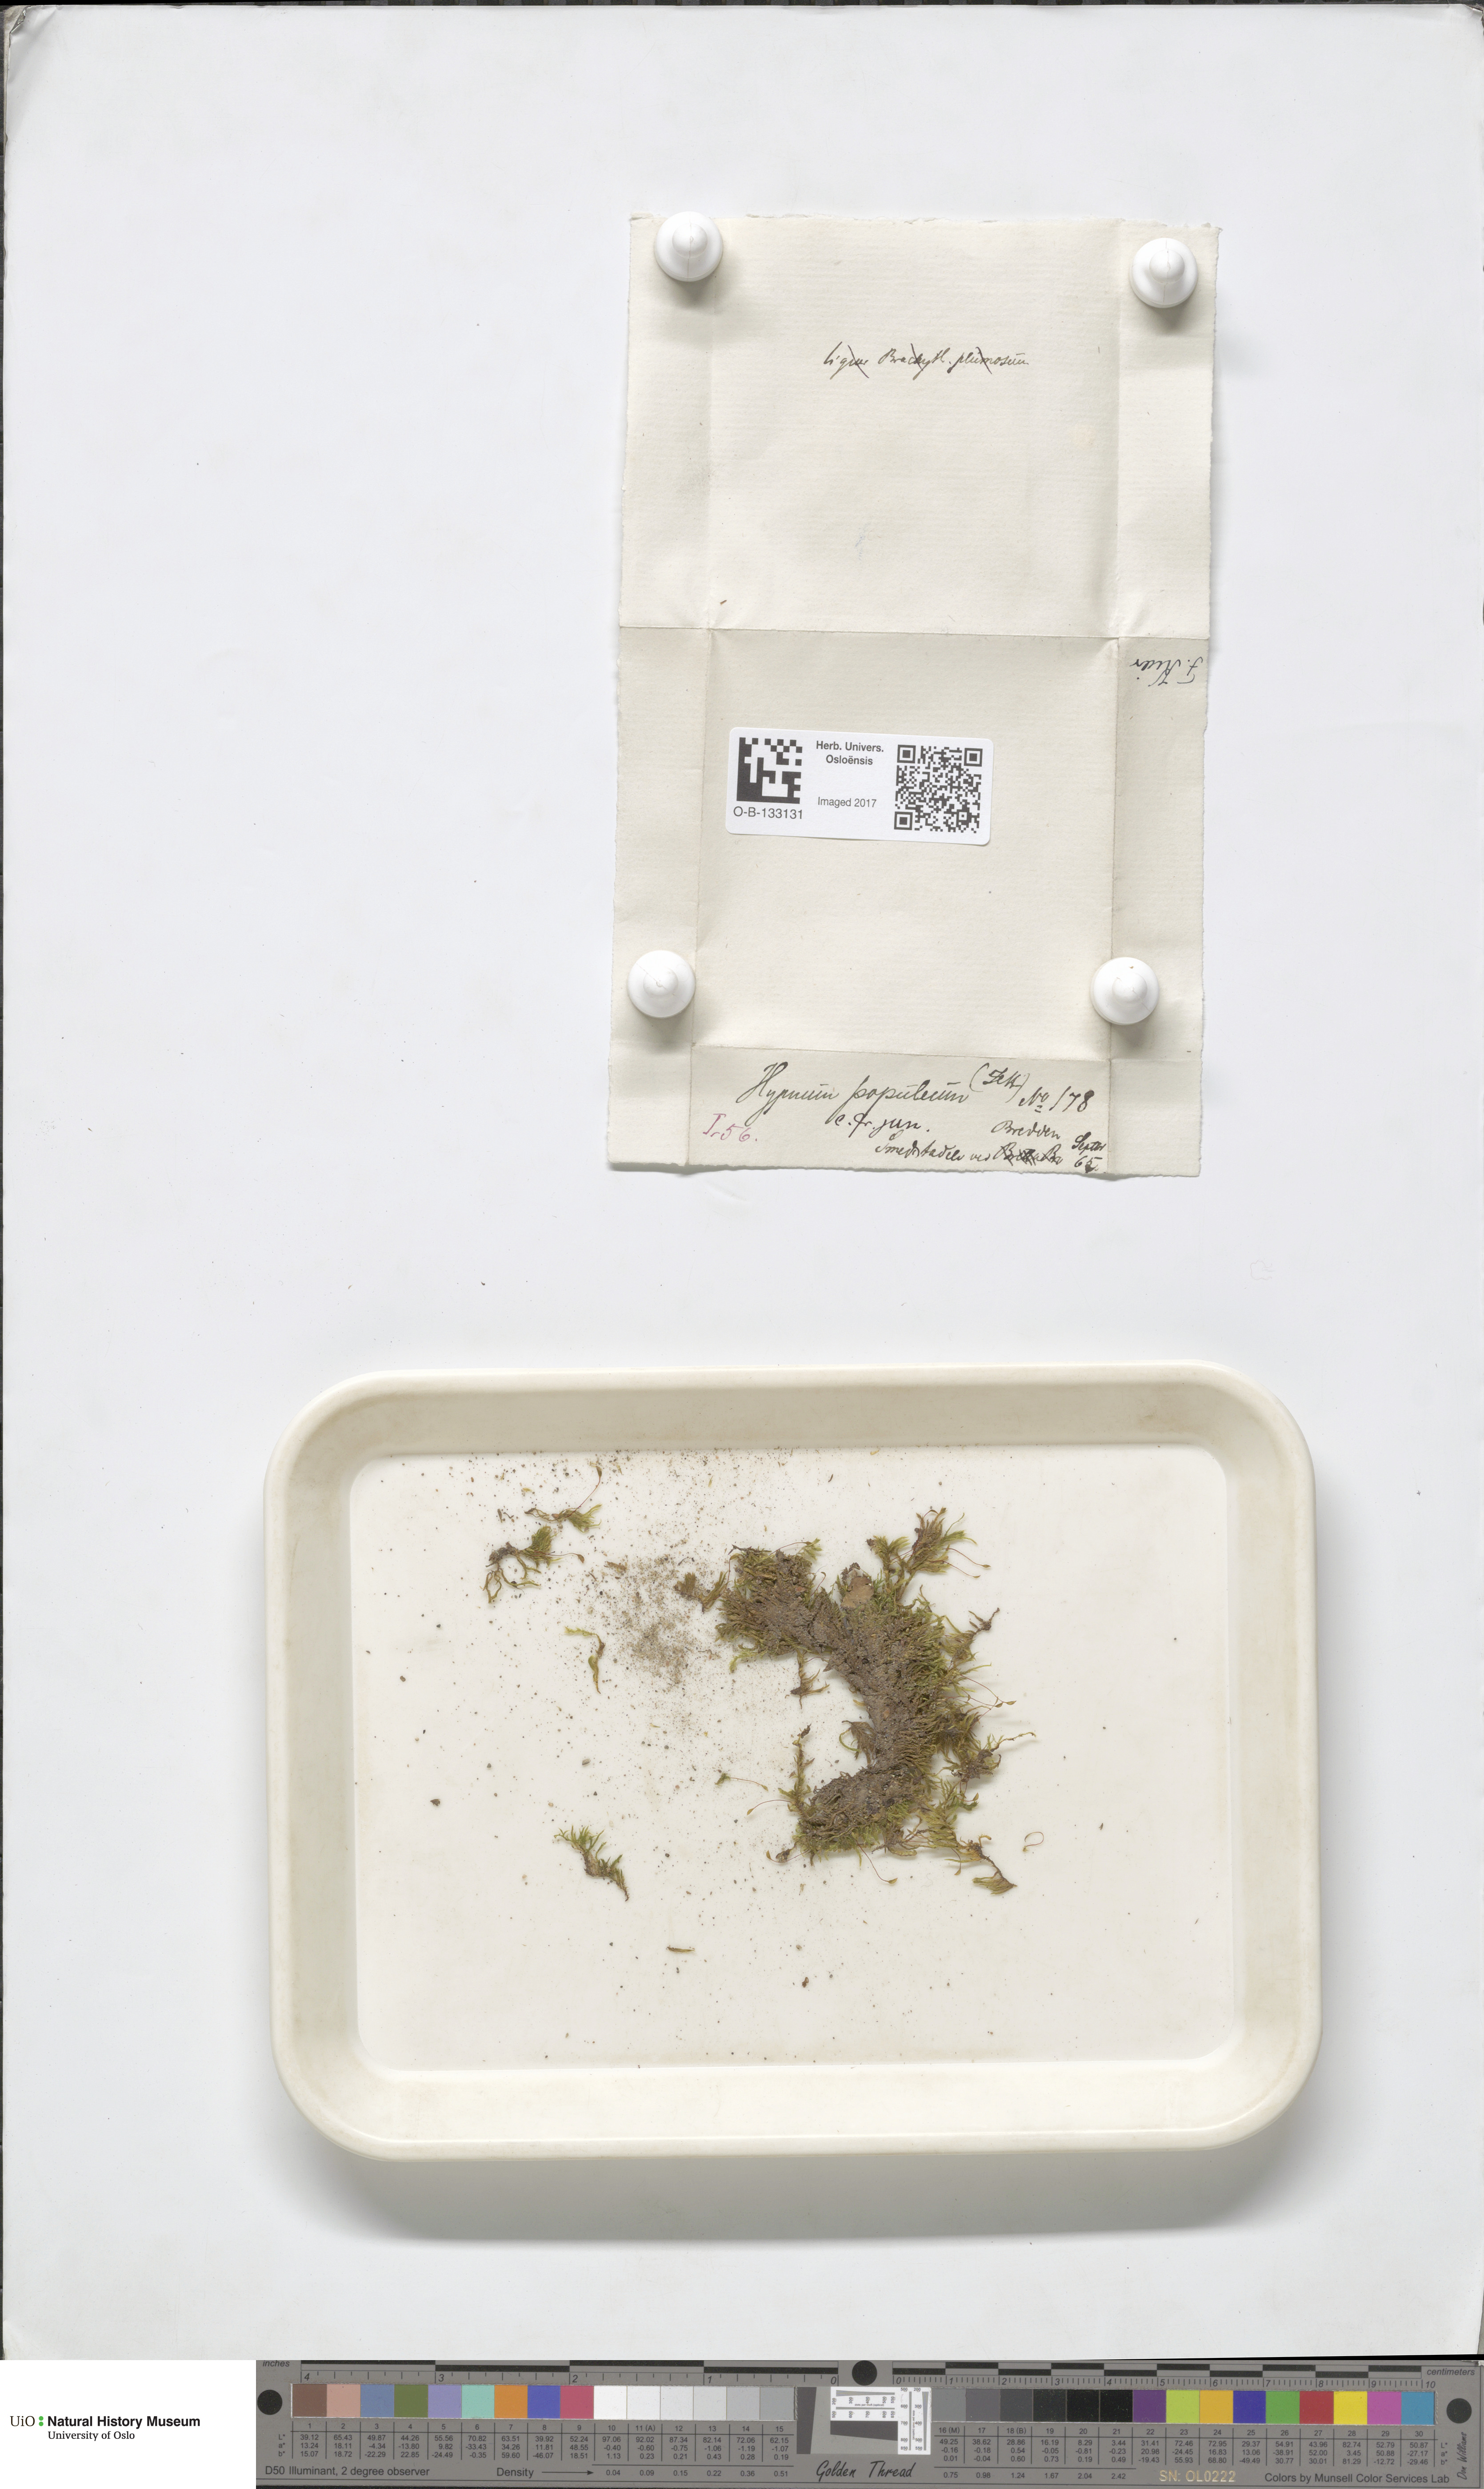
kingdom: Plantae
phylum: Bryophyta
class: Bryopsida
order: Hypnales
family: Brachytheciaceae
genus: Sciuro-hypnum
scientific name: Sciuro-hypnum plumosum
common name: Rusty feather-moss
